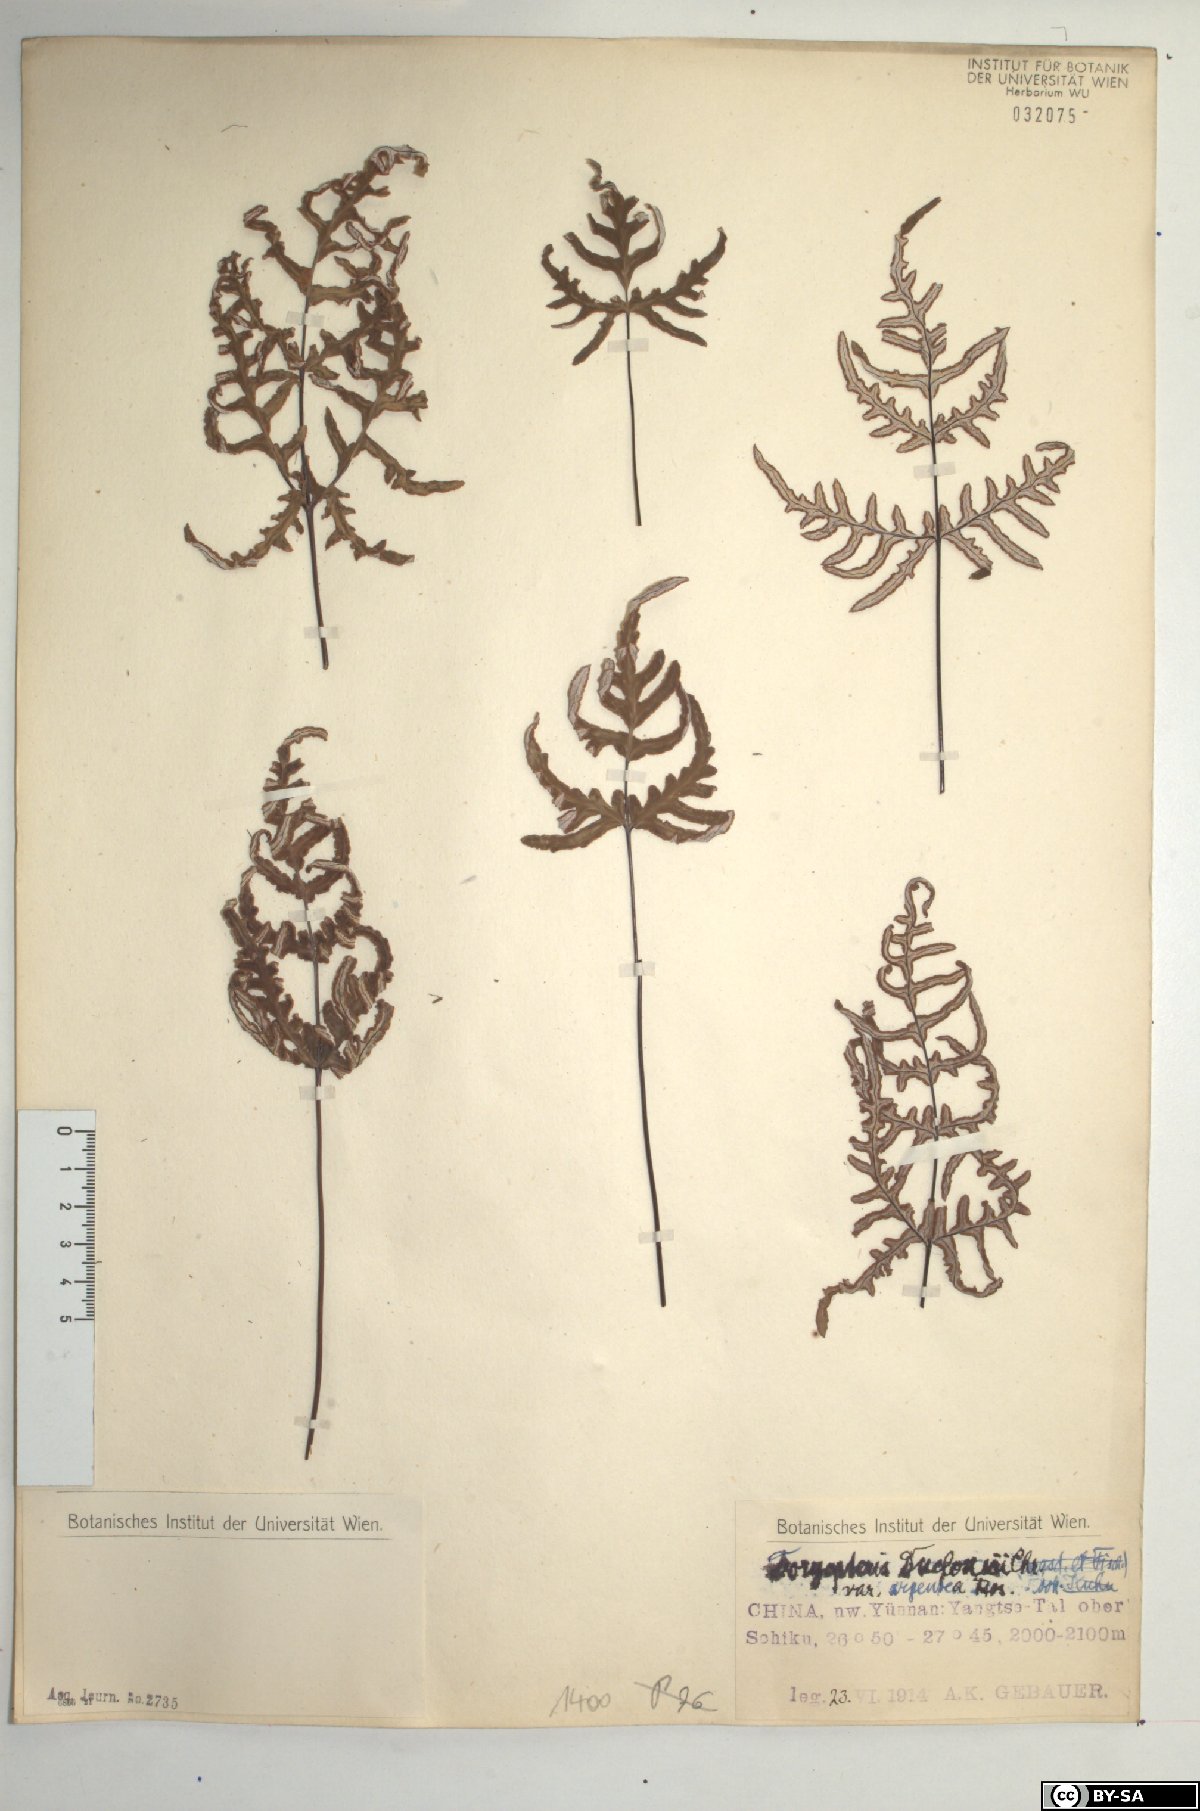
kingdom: Plantae
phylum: Tracheophyta
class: Polypodiopsida
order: Polypodiales
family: Pteridaceae
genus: Aleuritopteris
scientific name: Aleuritopteris duclouxii
